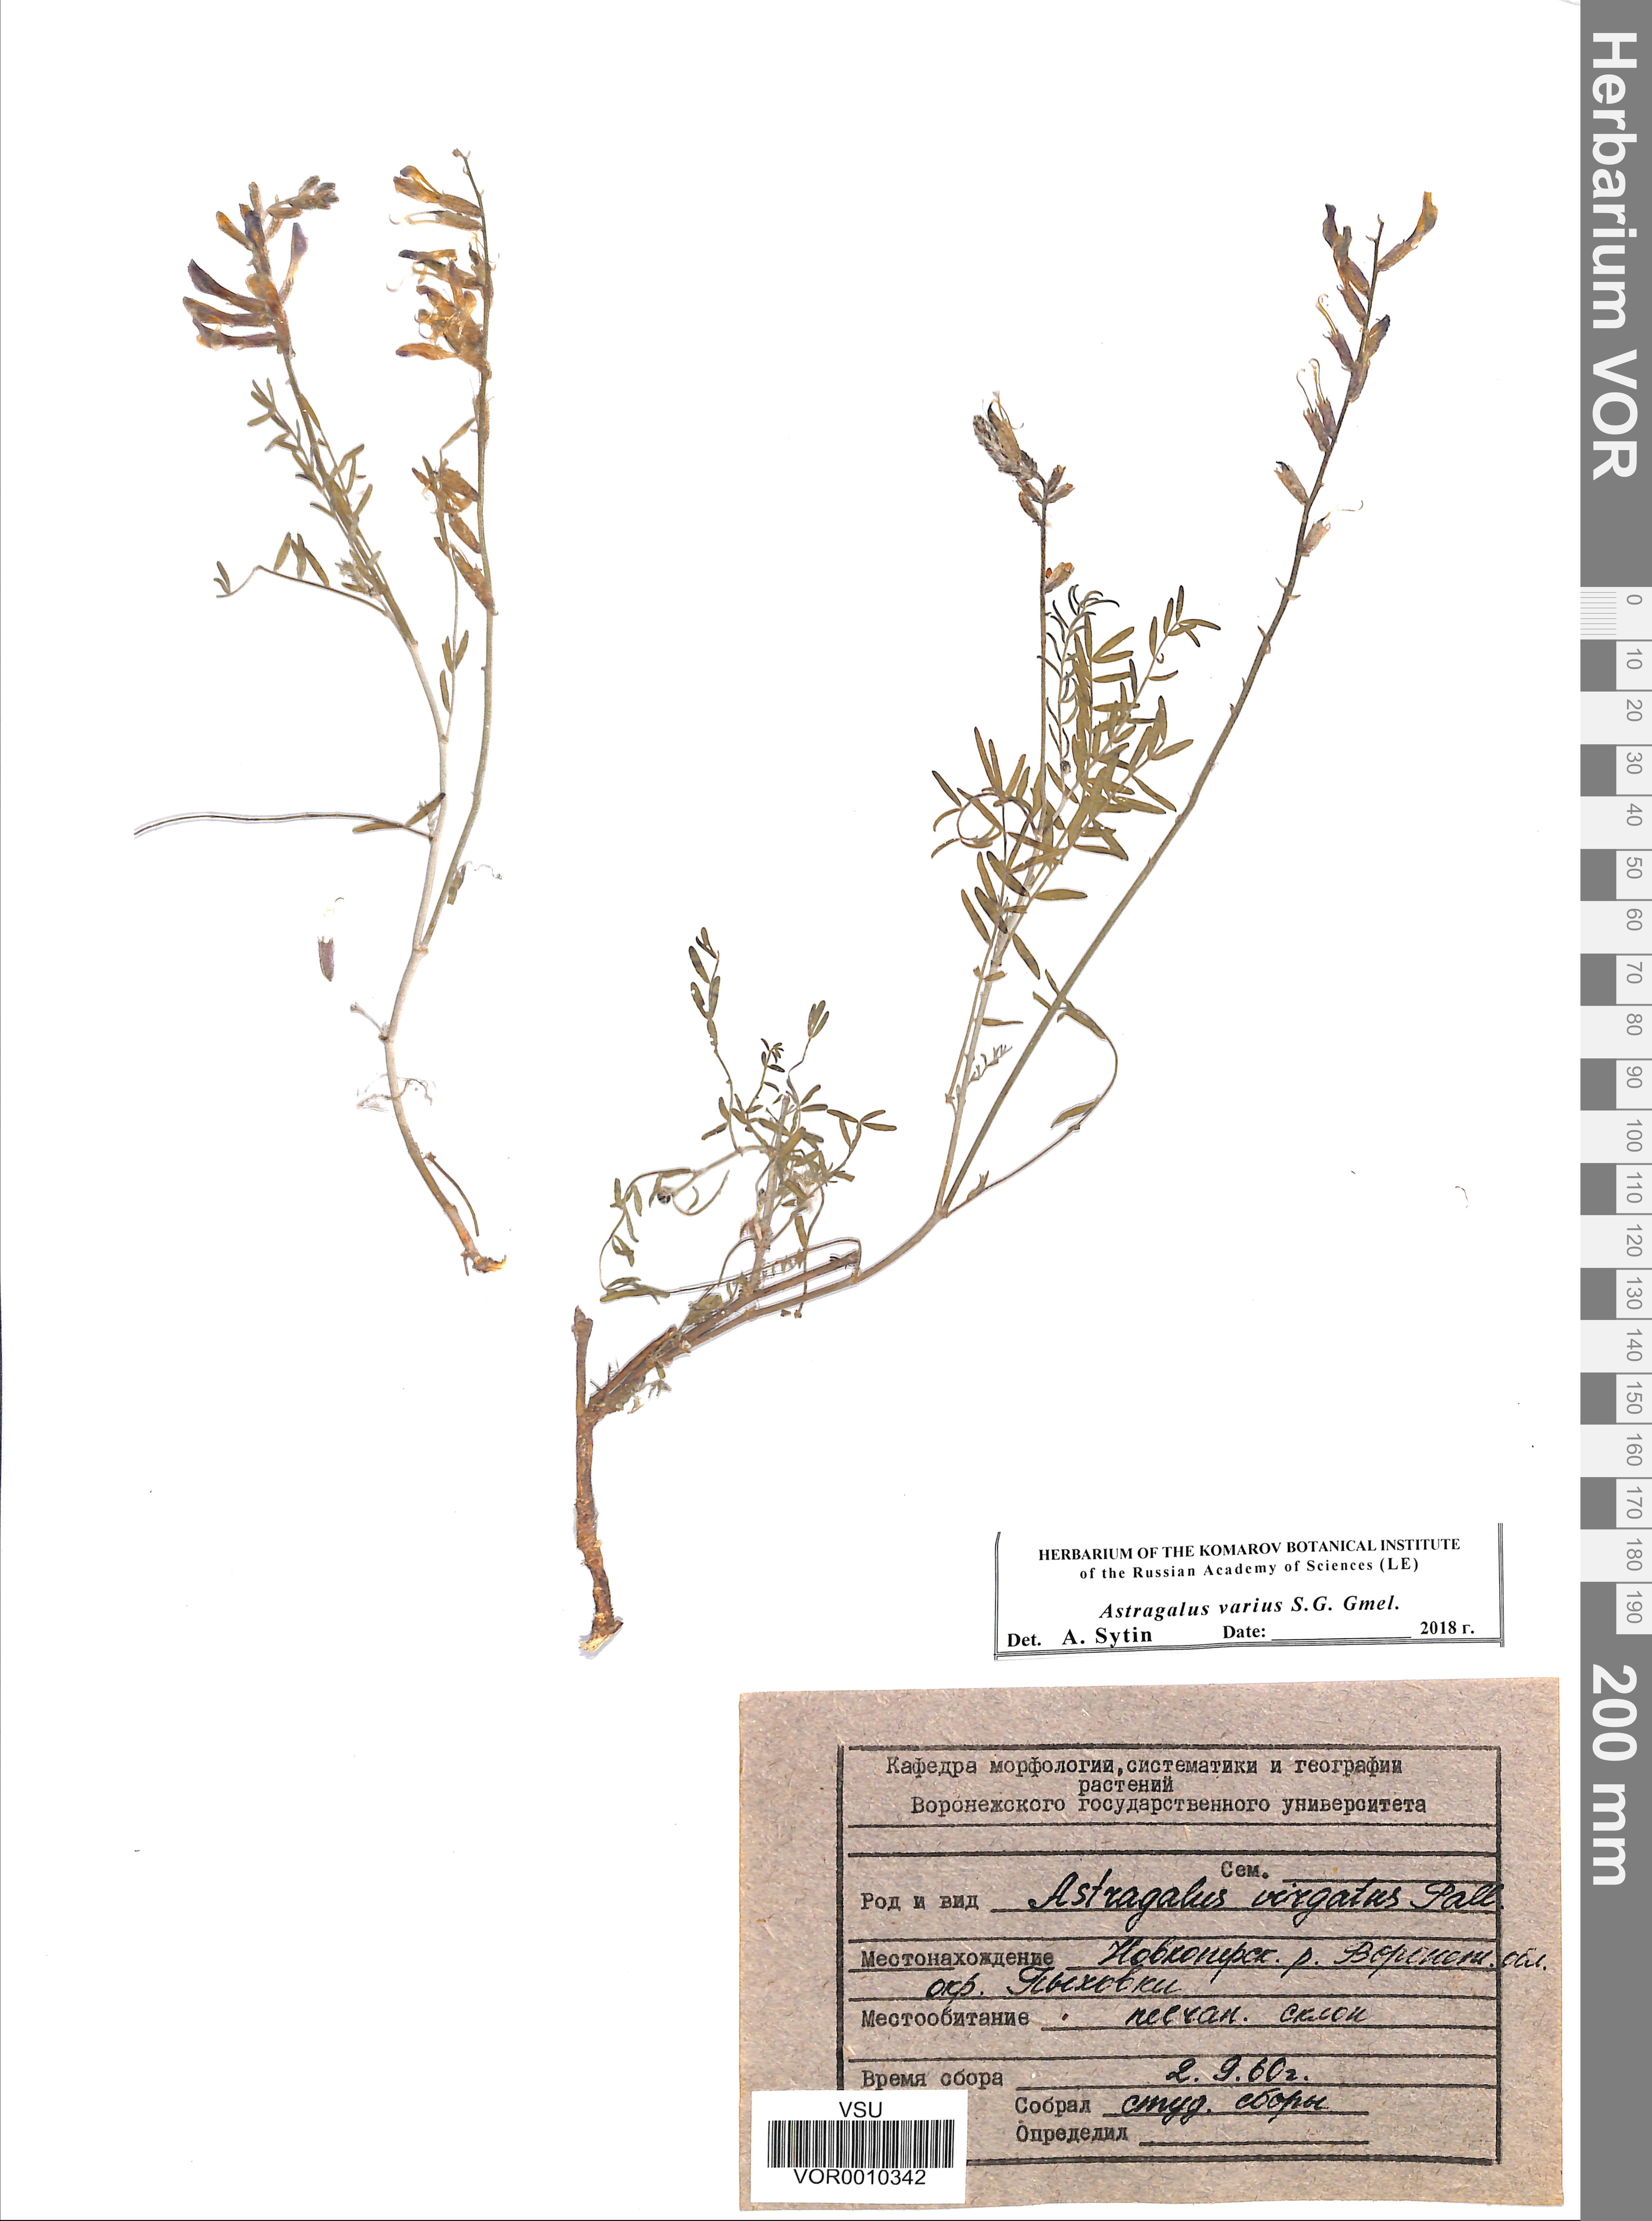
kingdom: Plantae
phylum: Tracheophyta
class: Magnoliopsida
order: Fabales
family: Fabaceae
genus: Astragalus
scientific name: Astragalus varius
